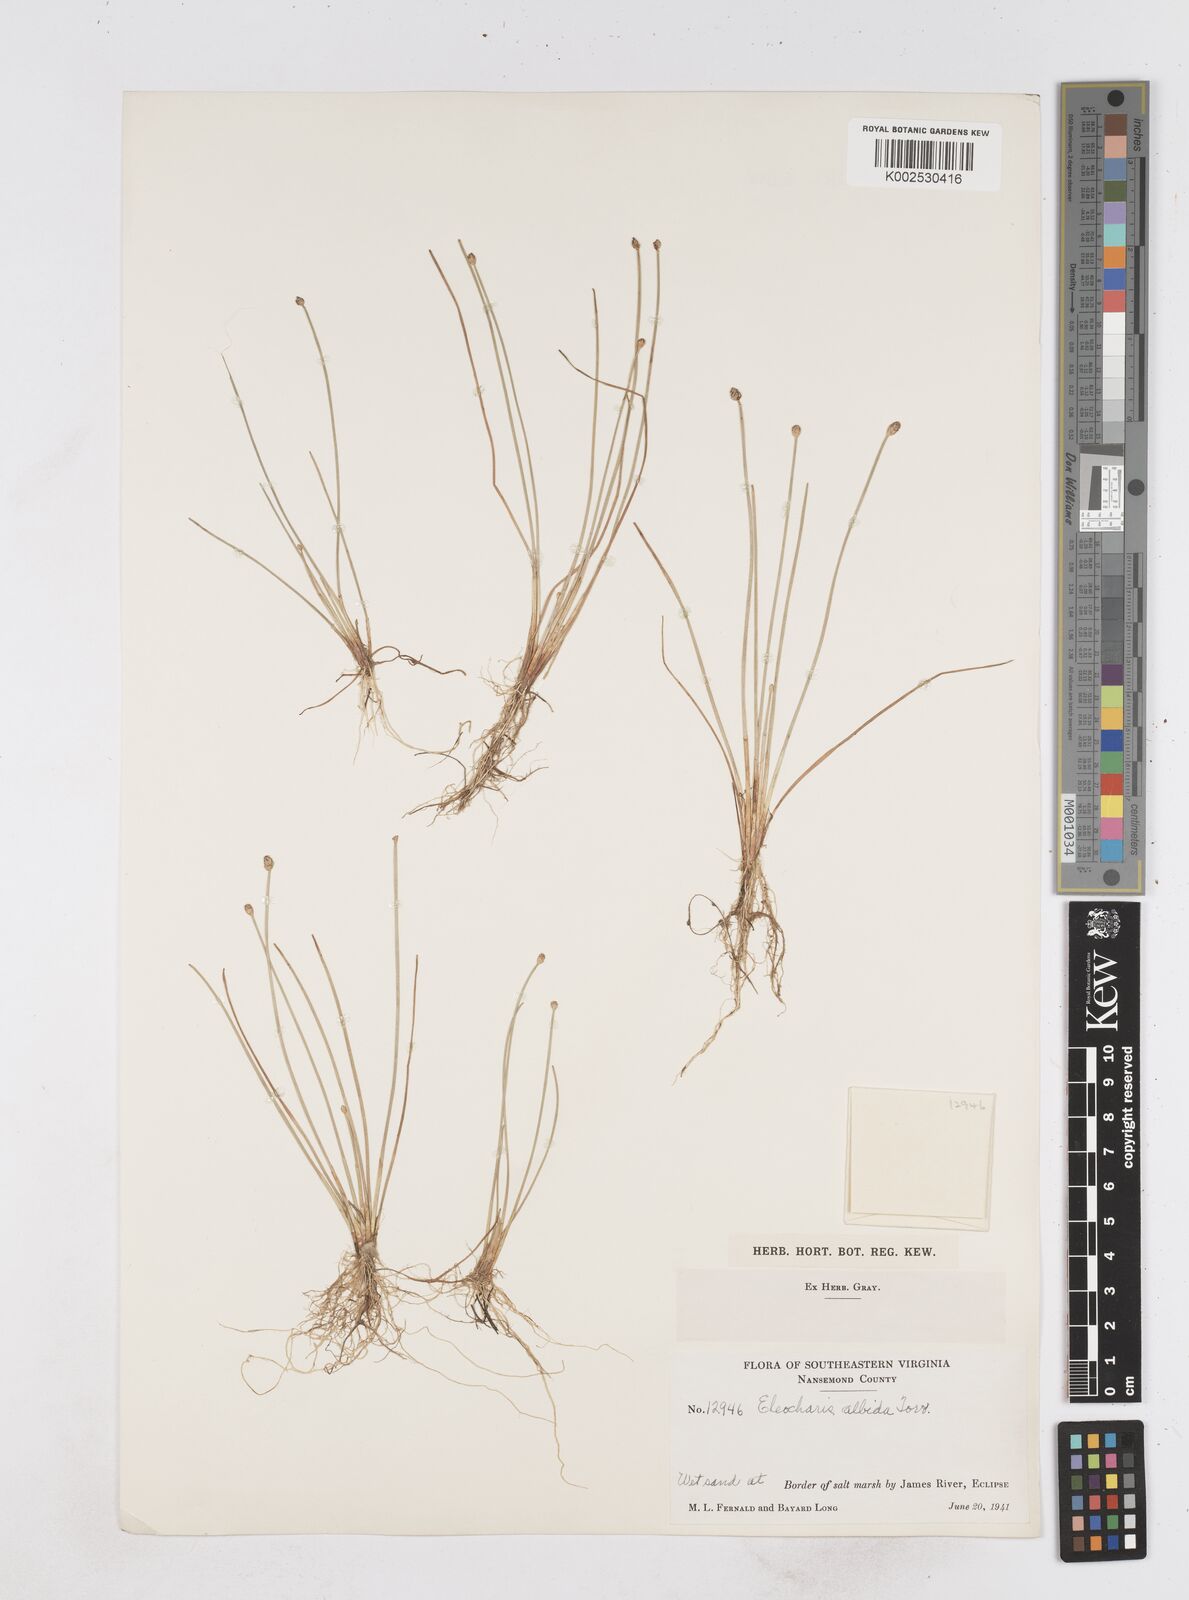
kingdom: Plantae
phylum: Tracheophyta
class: Liliopsida
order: Poales
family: Cyperaceae
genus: Eleocharis
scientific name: Eleocharis albida
